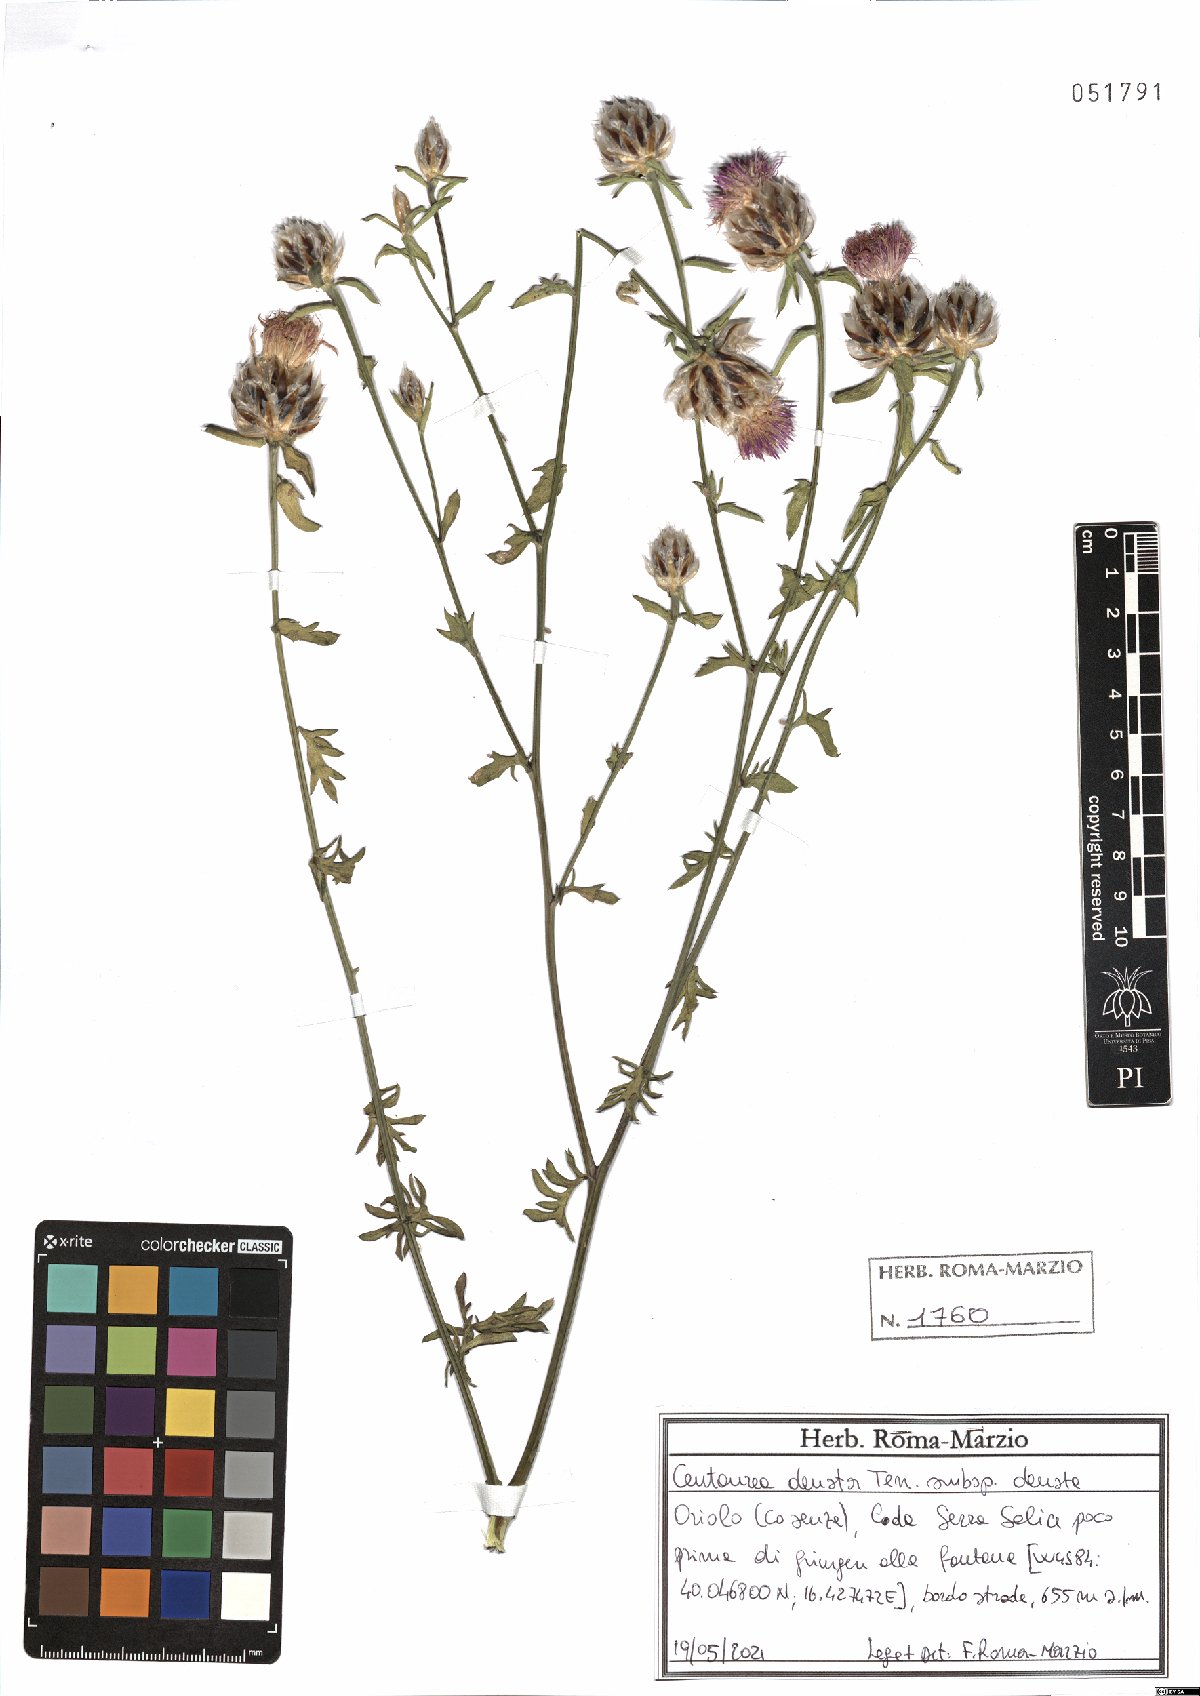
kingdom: Plantae
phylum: Tracheophyta
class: Magnoliopsida
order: Asterales
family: Asteraceae
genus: Centaurea
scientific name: Centaurea deusta
